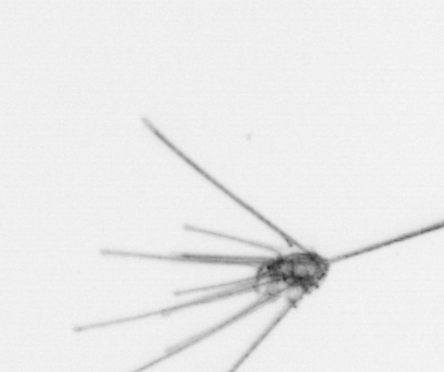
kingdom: Animalia
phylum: Echinodermata
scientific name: Echinodermata
